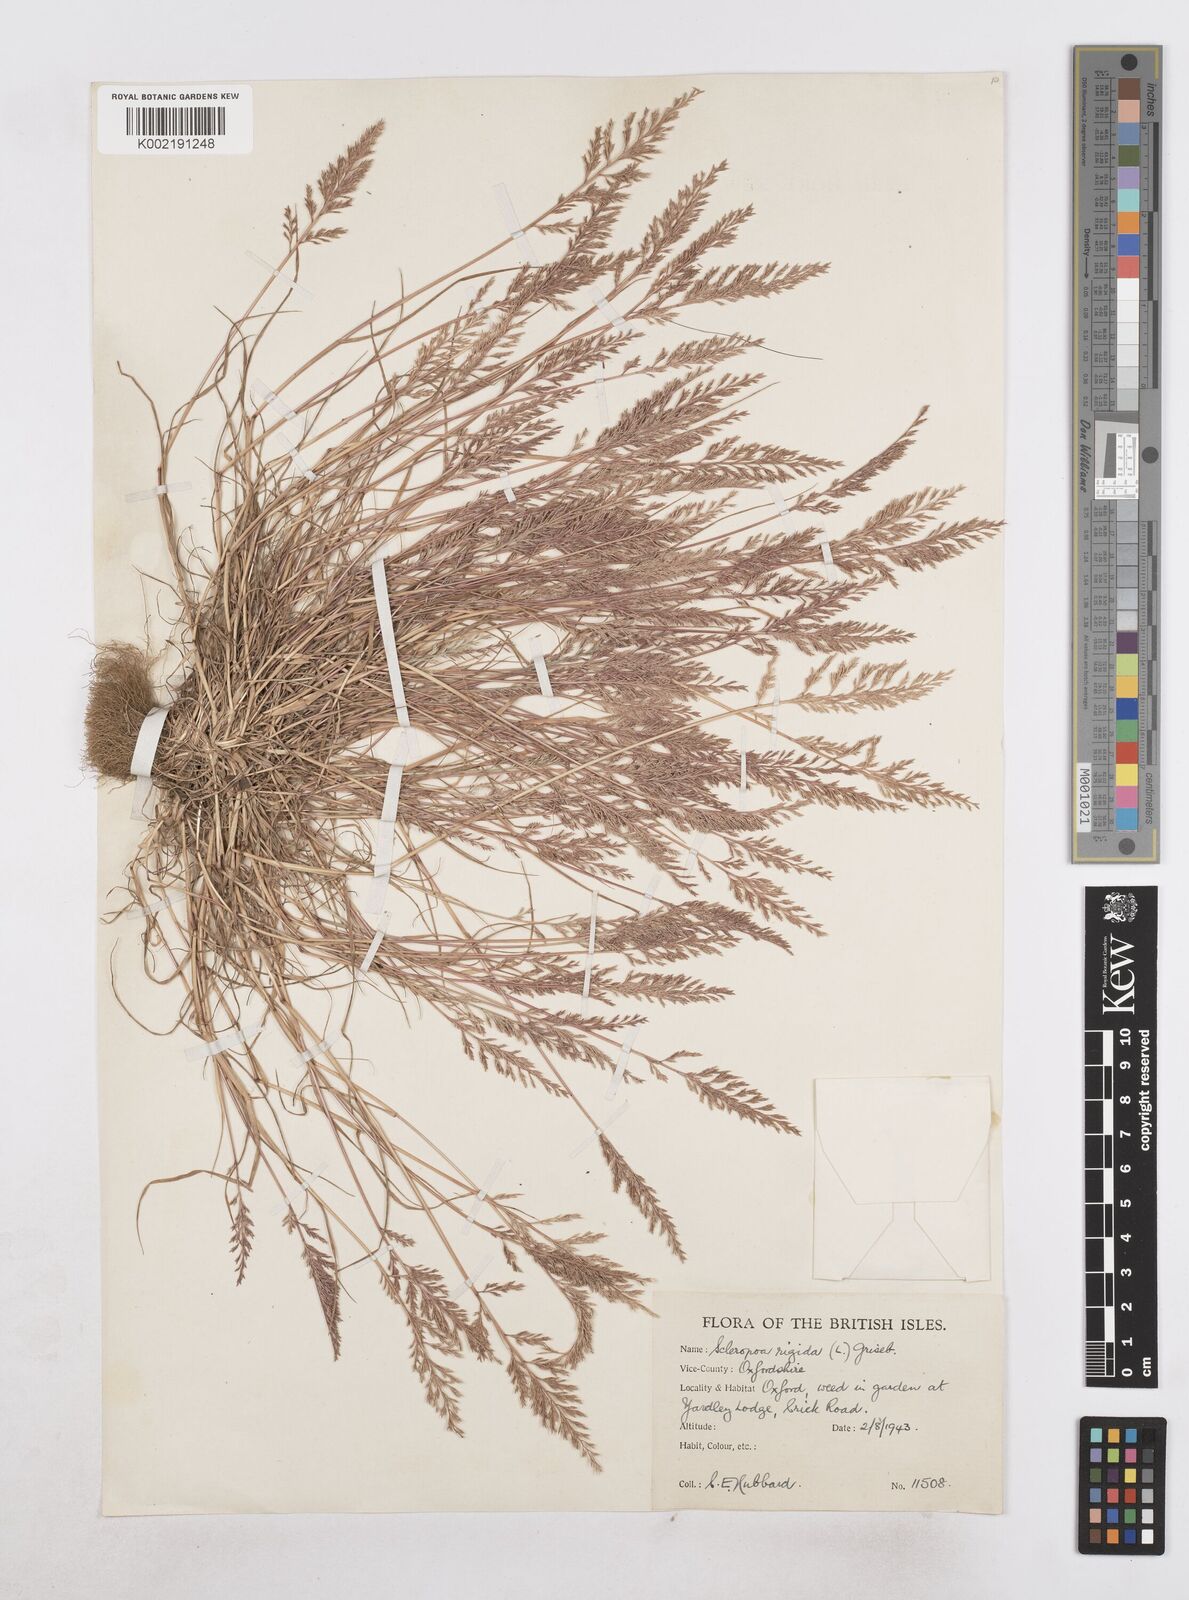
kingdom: Plantae
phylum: Tracheophyta
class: Liliopsida
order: Poales
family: Poaceae
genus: Catapodium
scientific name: Catapodium rigidum
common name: Fern-grass
